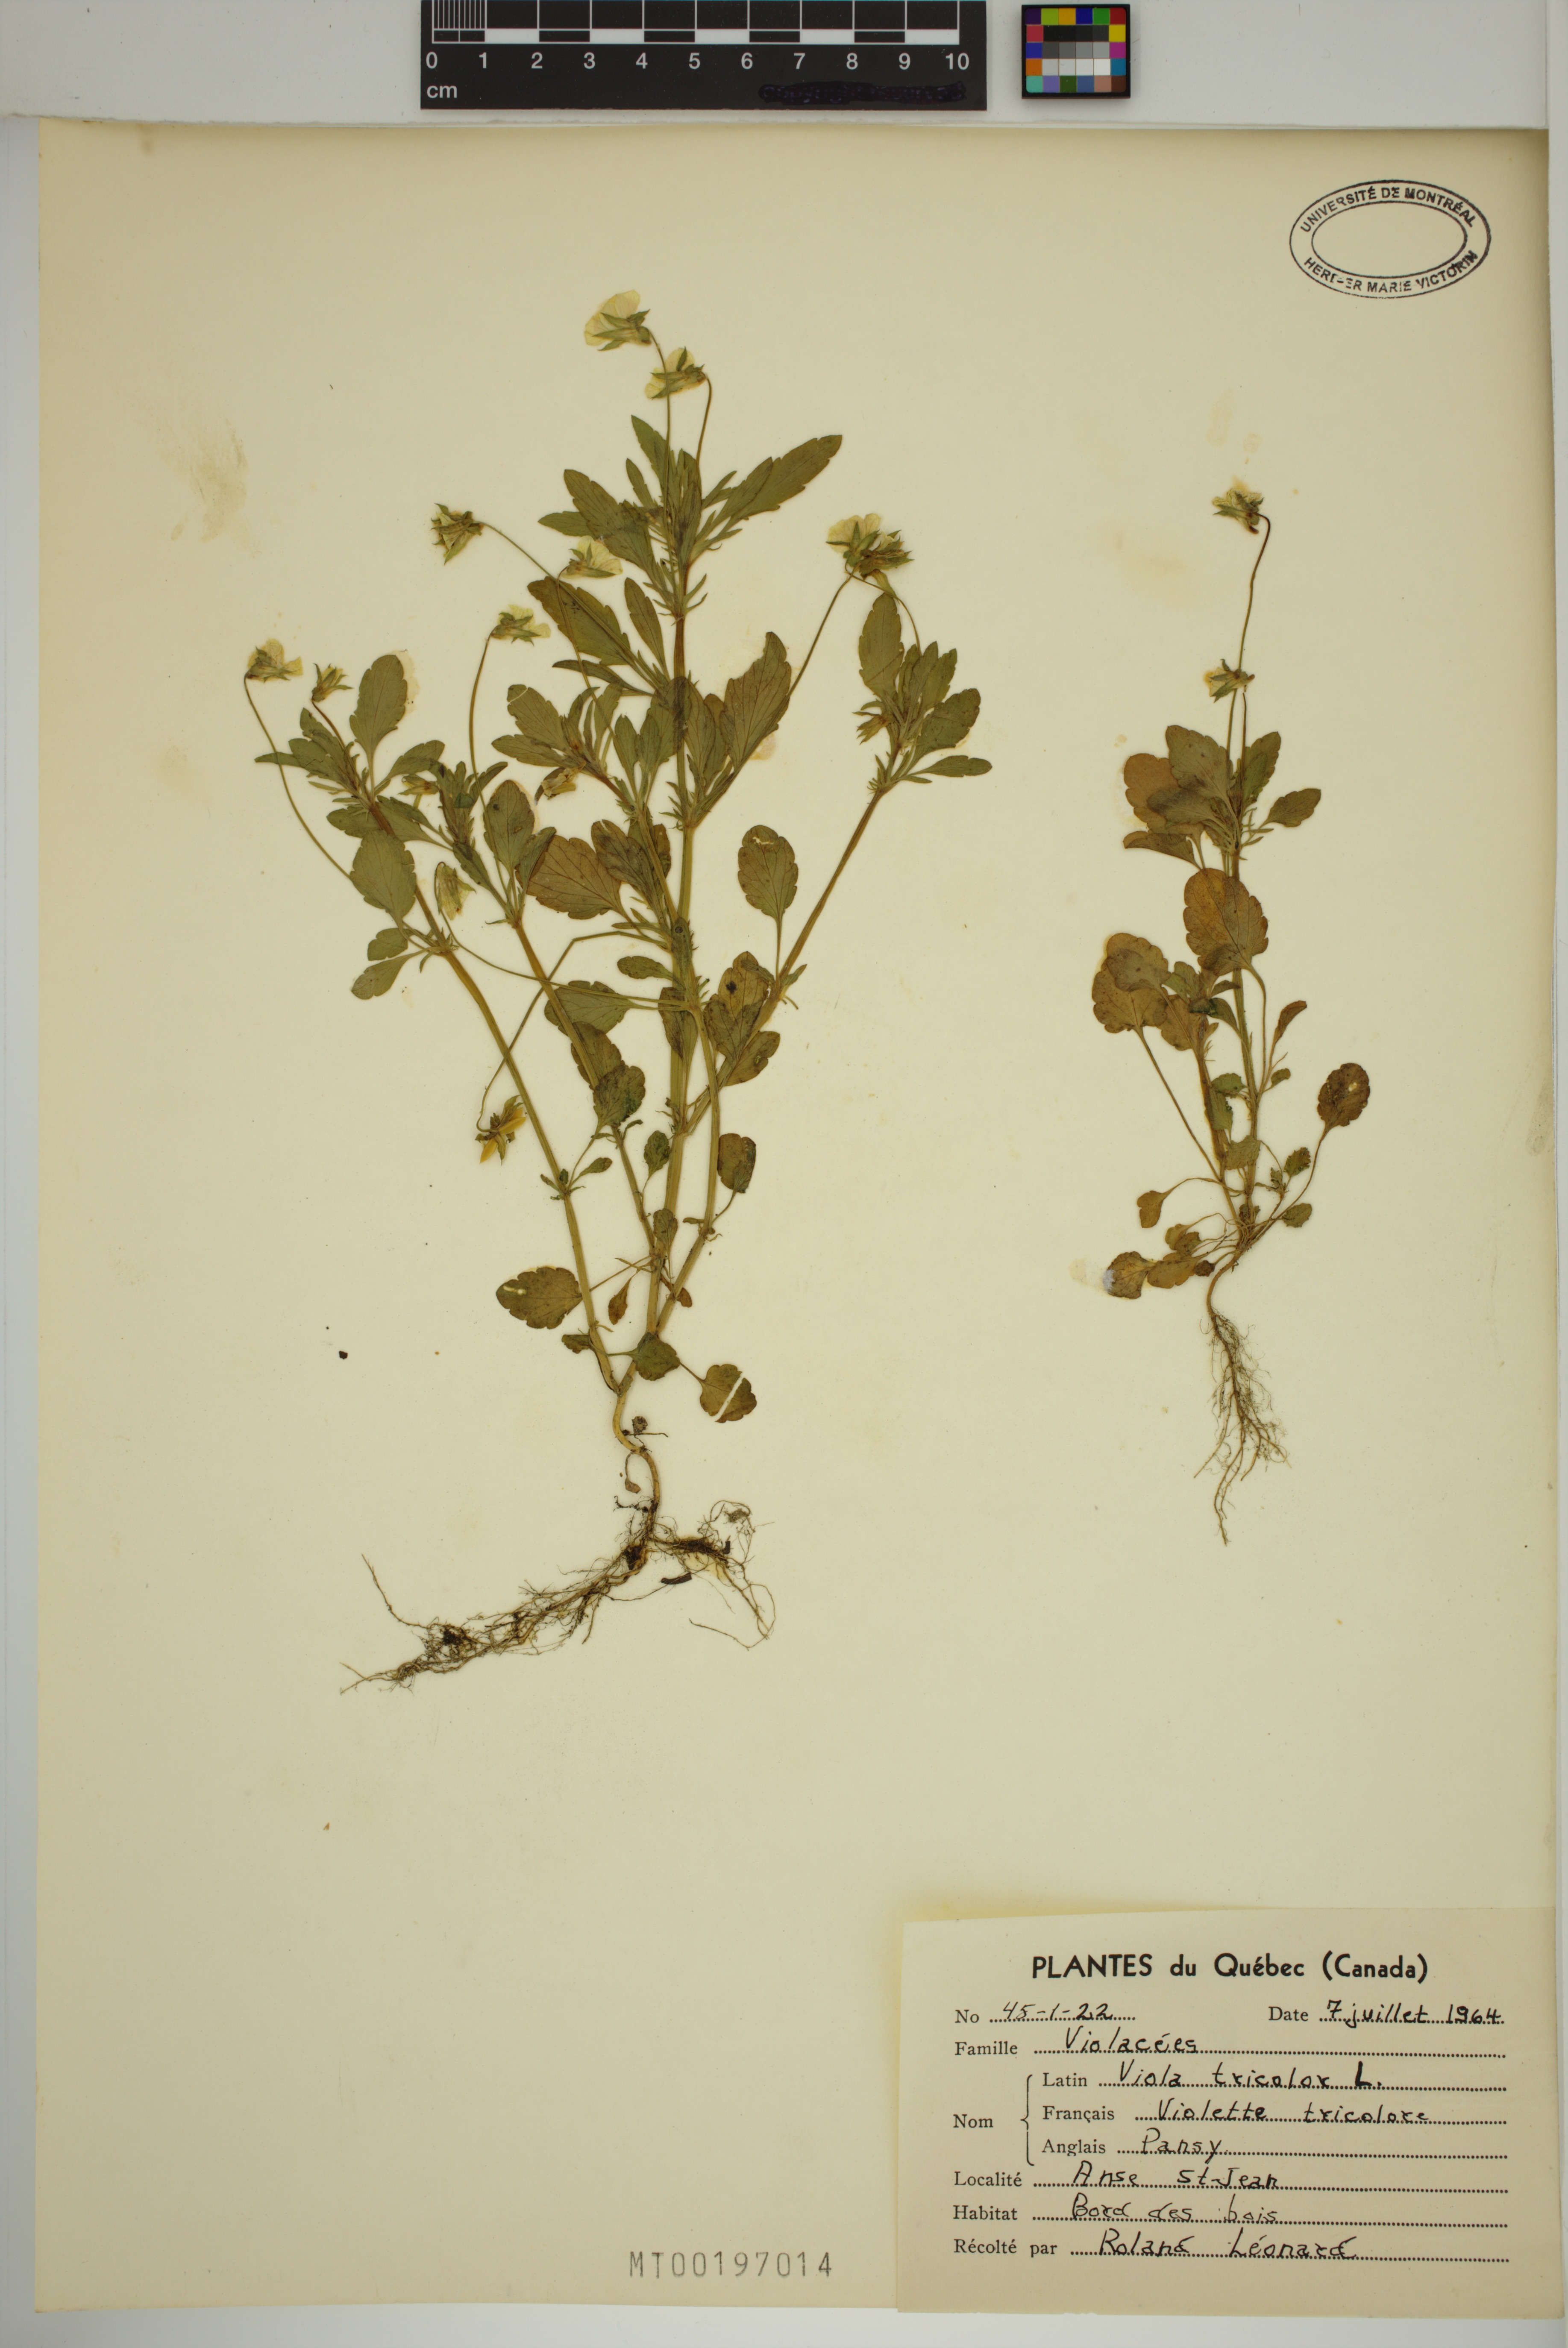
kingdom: Plantae
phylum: Tracheophyta
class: Magnoliopsida
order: Malpighiales
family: Violaceae
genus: Viola
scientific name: Viola tricolor
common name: Pansy
